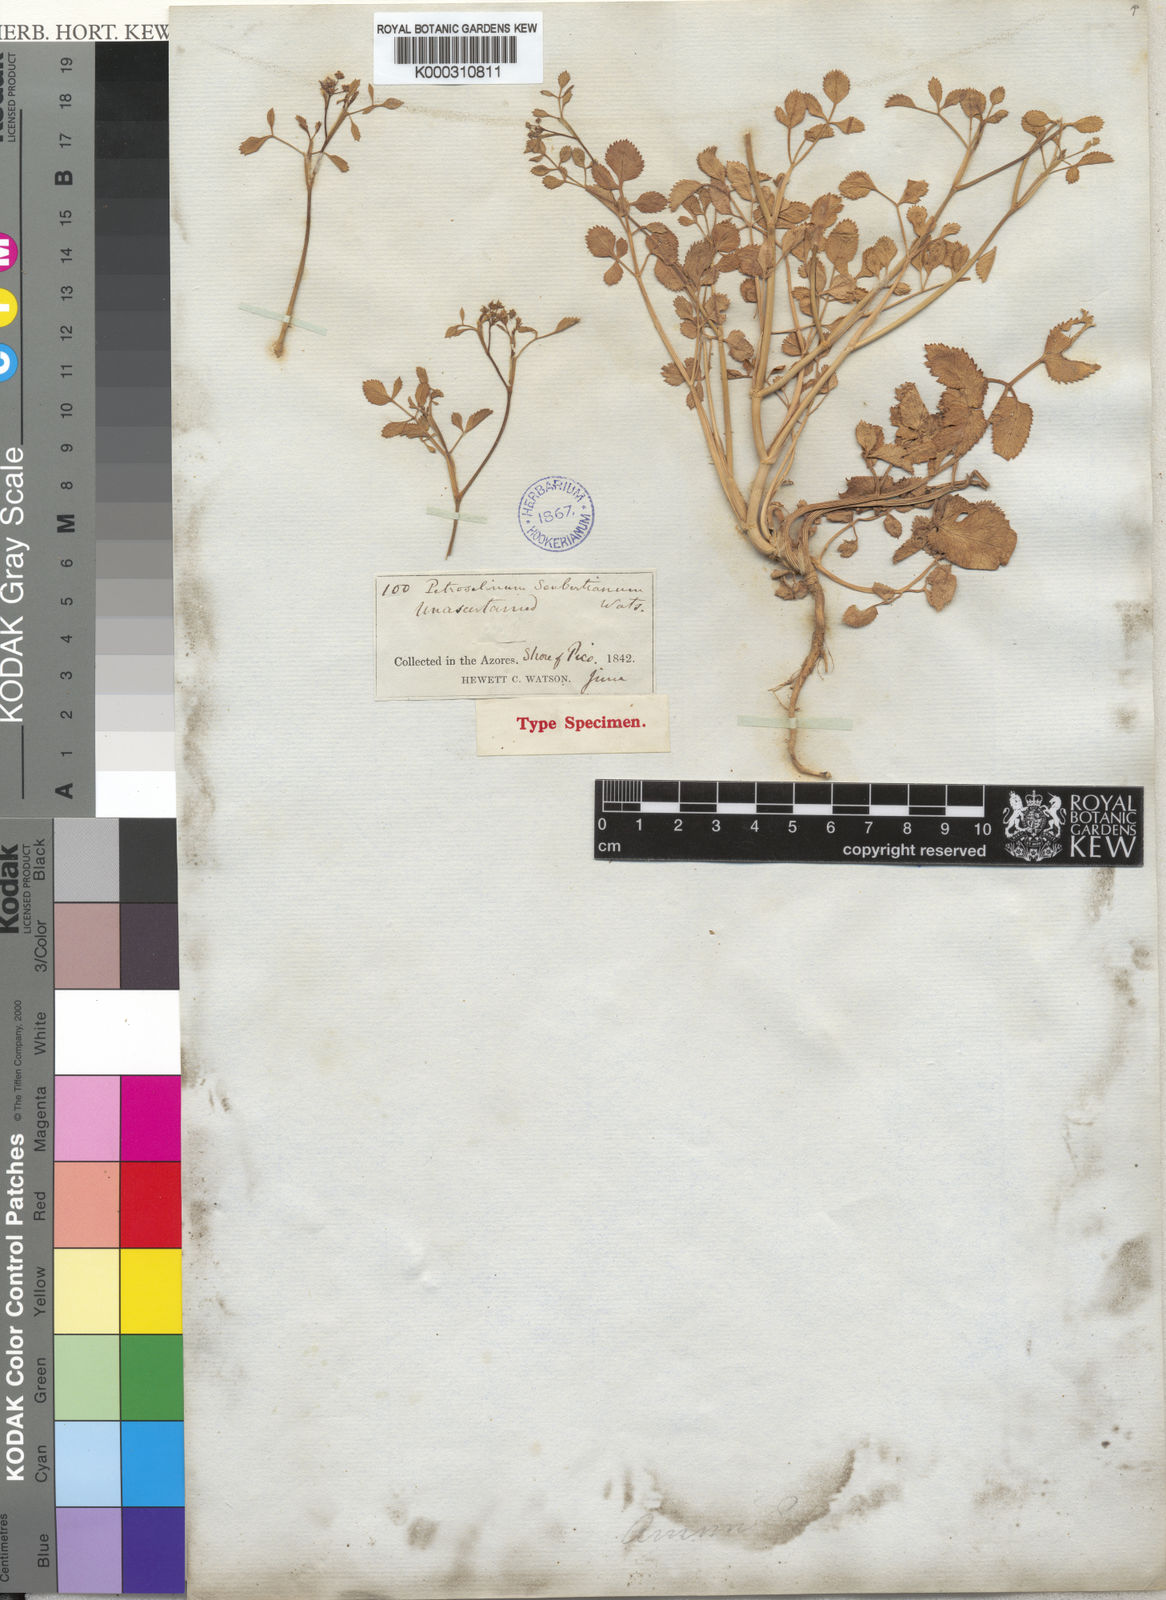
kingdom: Plantae
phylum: Tracheophyta
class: Magnoliopsida
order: Apiales
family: Apiaceae
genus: Ammi
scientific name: Ammi seubertianum
